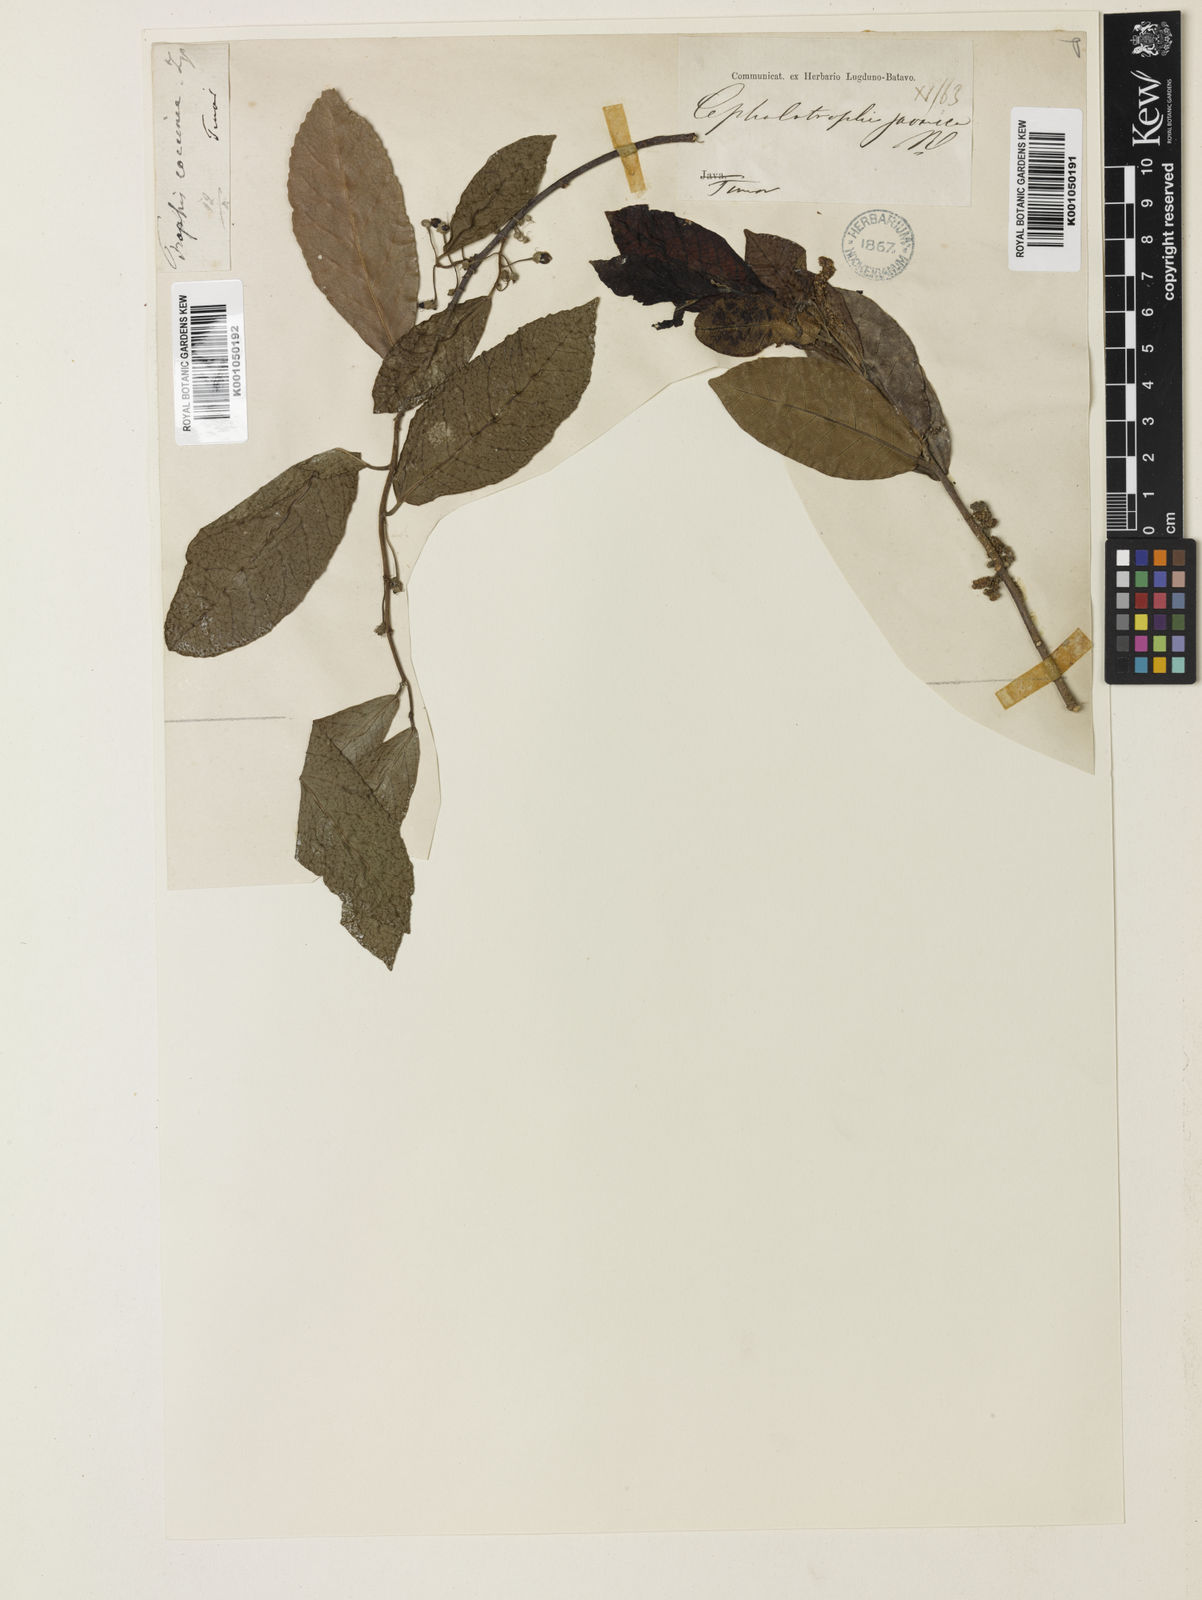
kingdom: Plantae
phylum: Tracheophyta
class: Magnoliopsida
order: Rosales
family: Moraceae
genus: Malaisia
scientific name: Malaisia scandens
